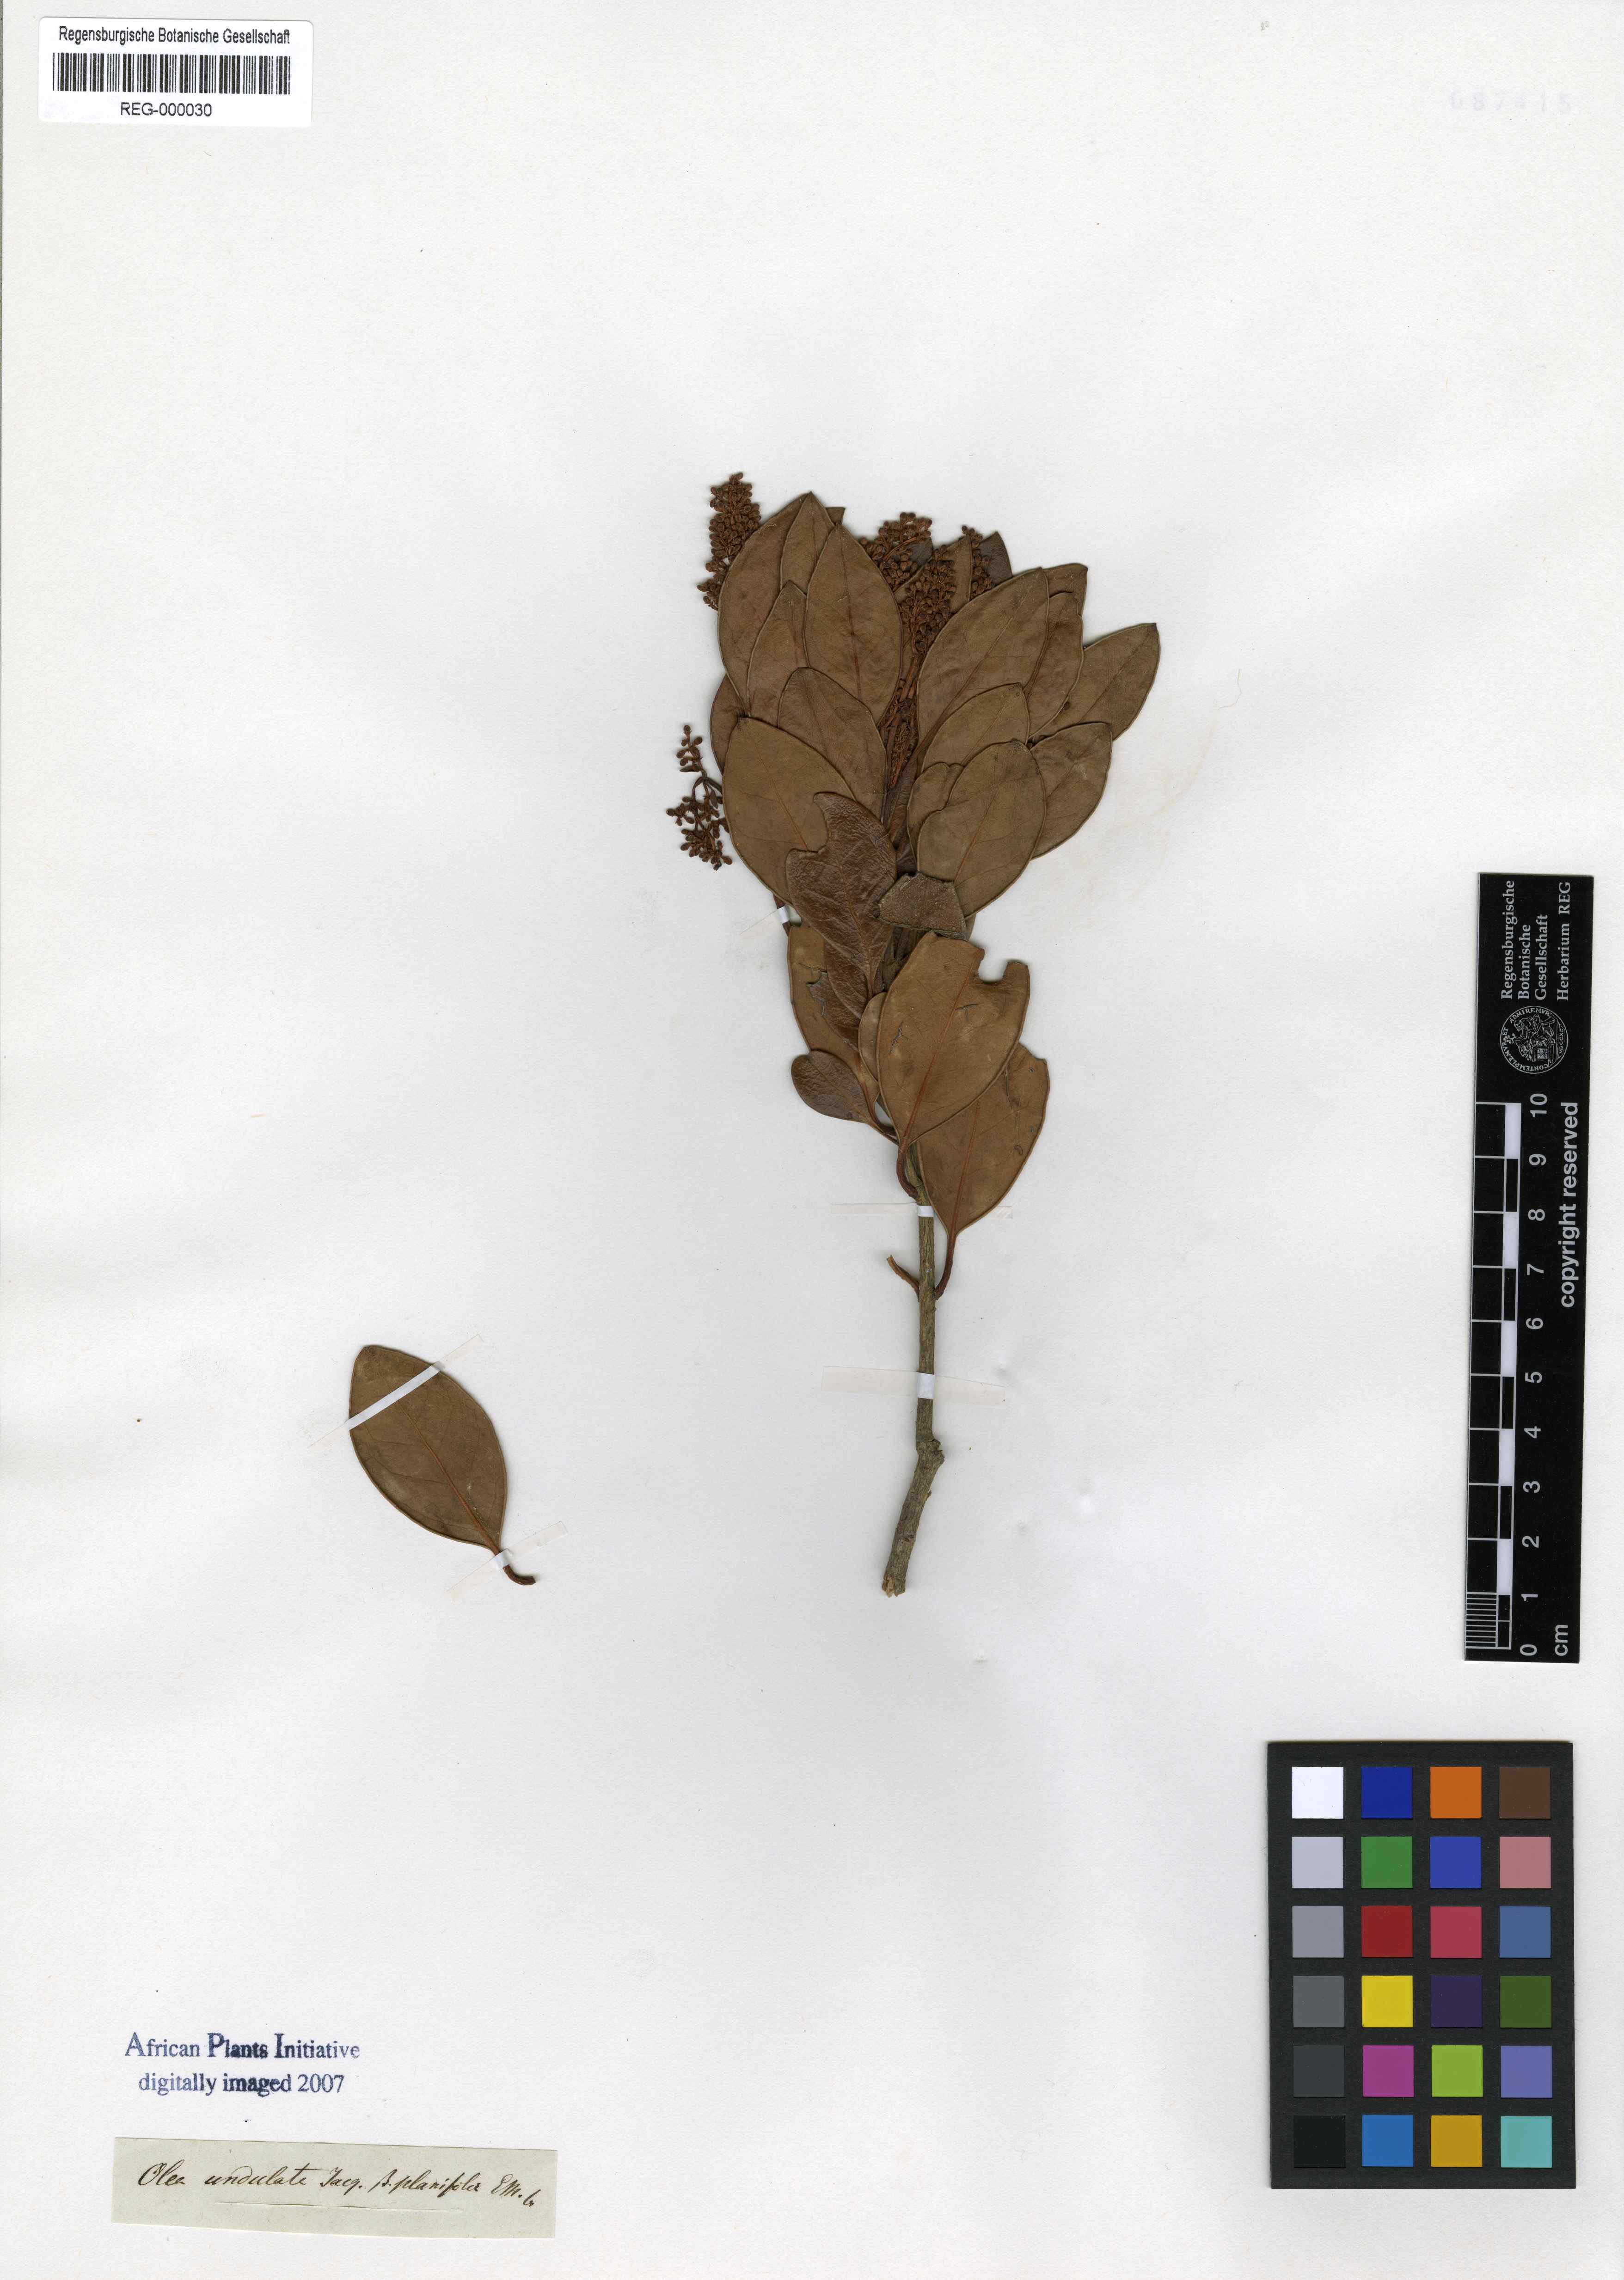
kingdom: Plantae
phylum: Tracheophyta
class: Magnoliopsida
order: Lamiales
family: Oleaceae
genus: Olea
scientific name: Olea capensis
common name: Black ironwood
